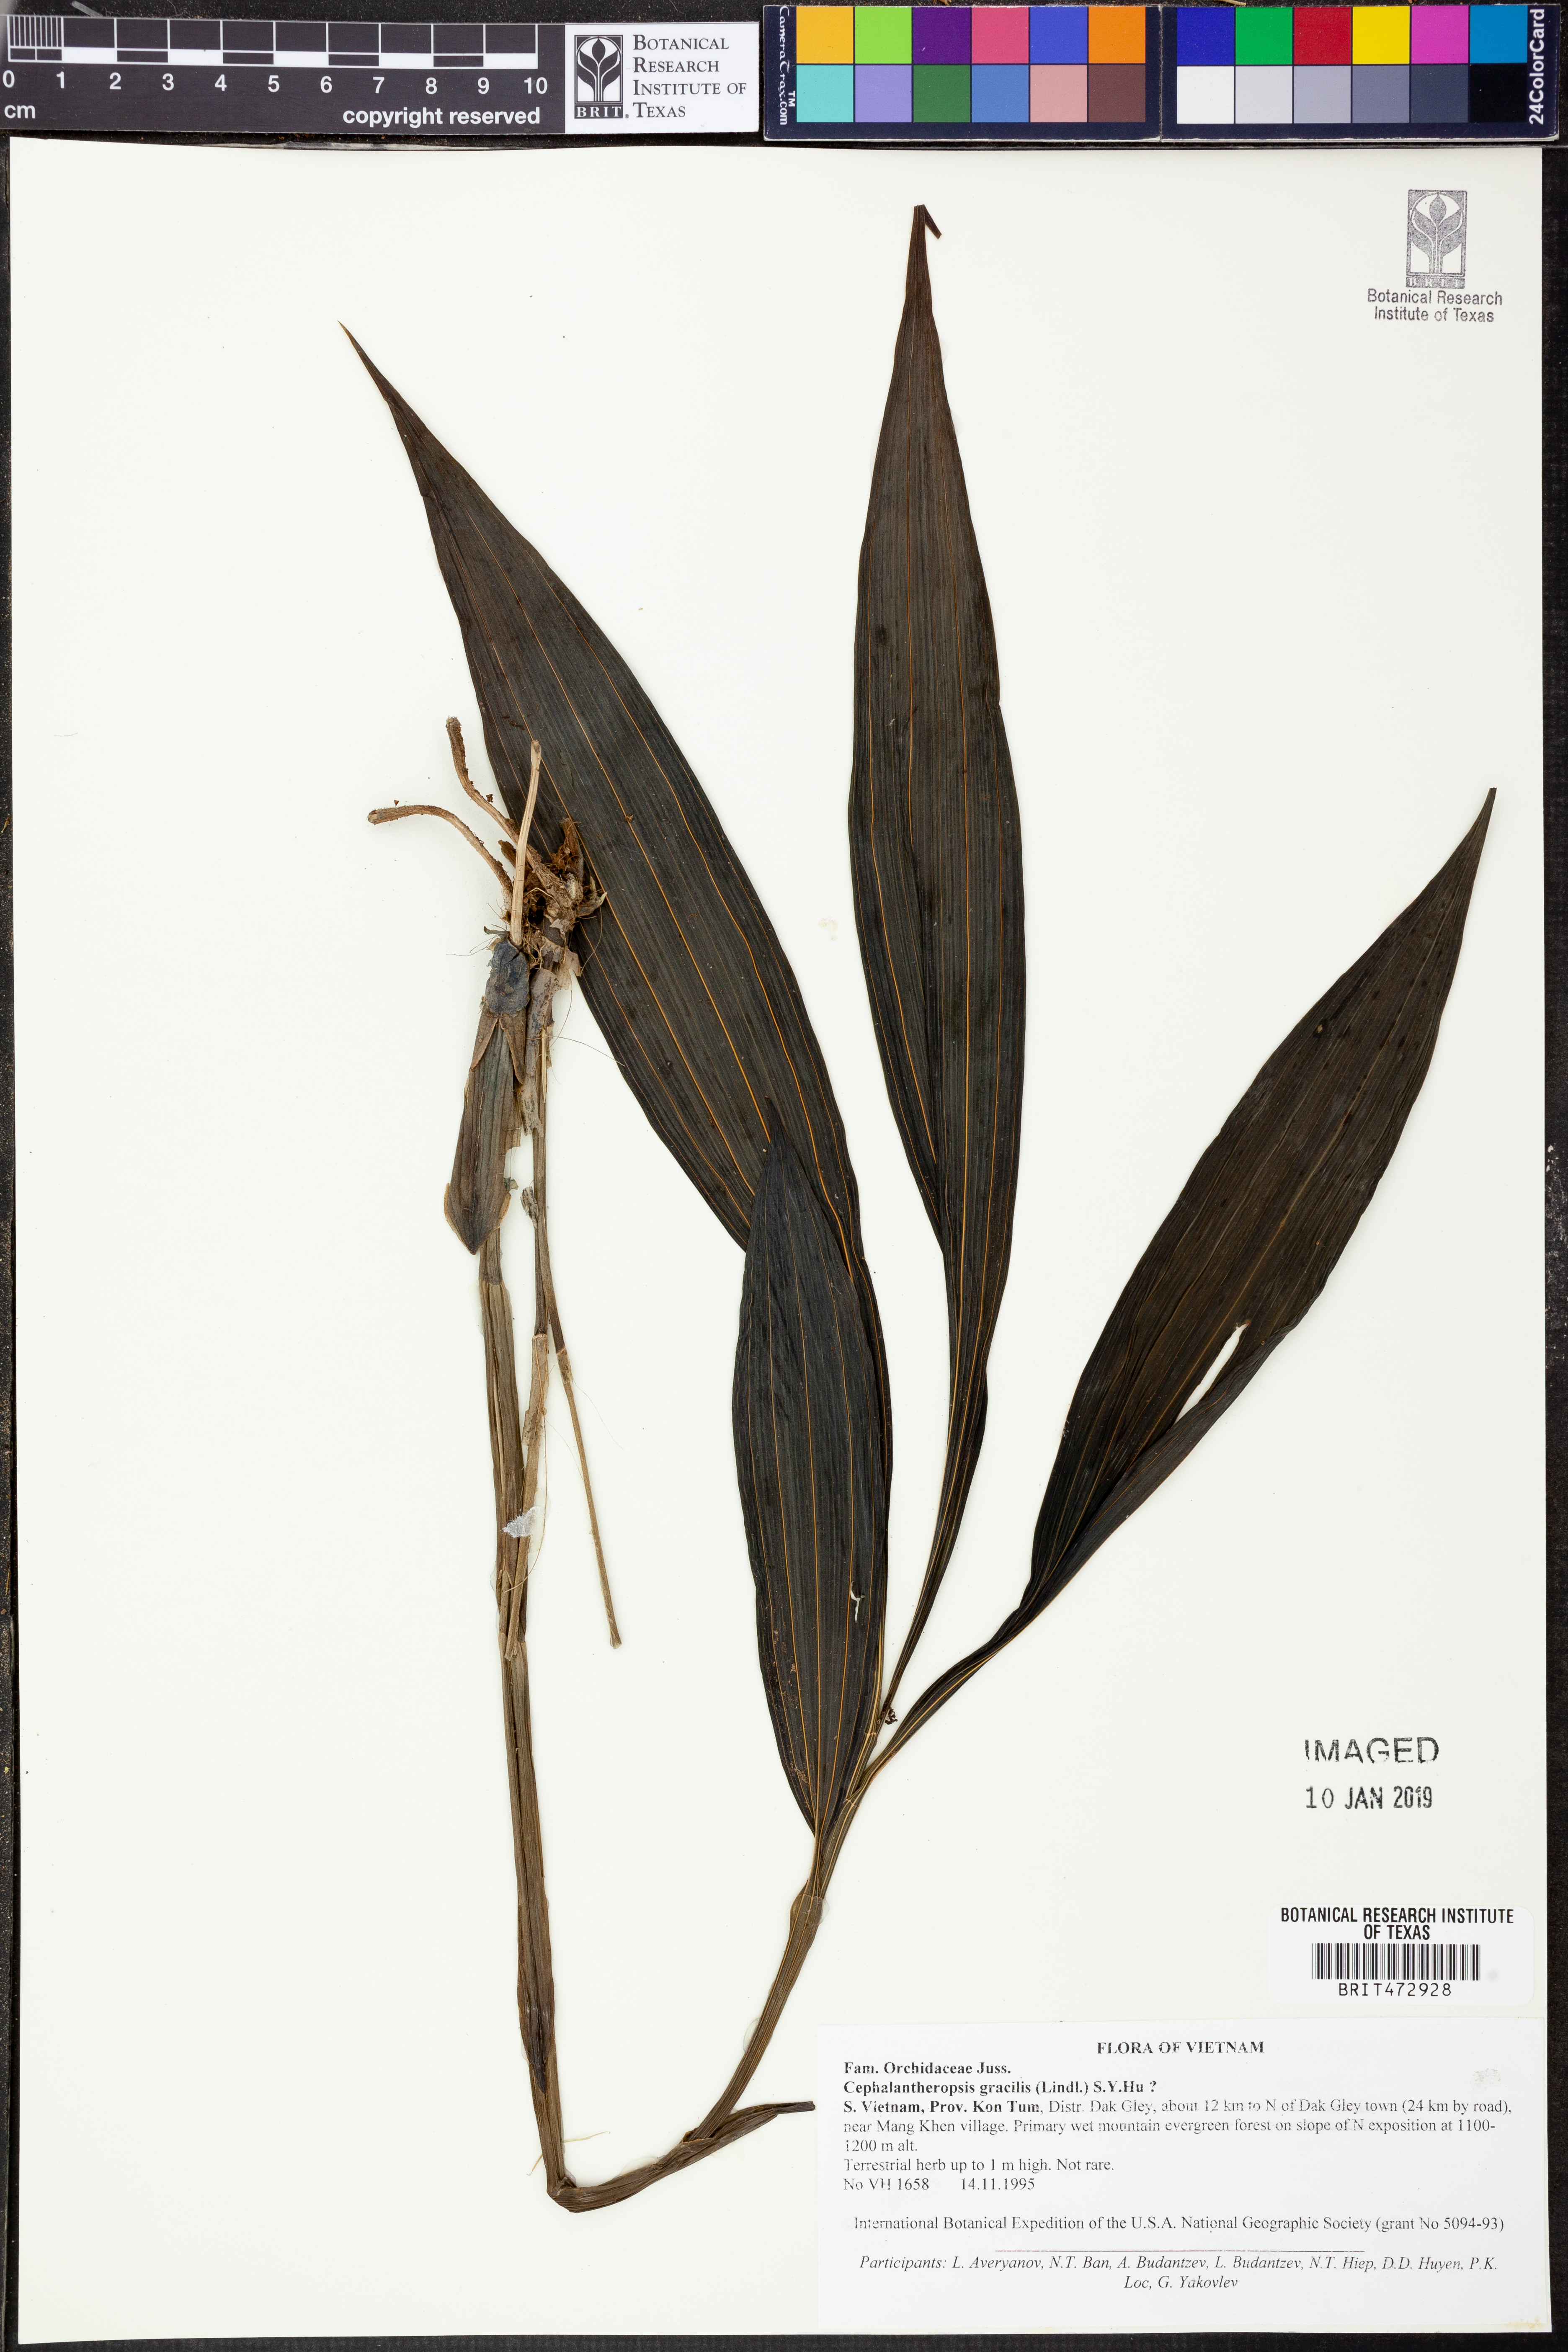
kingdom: Plantae
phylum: Tracheophyta
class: Liliopsida
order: Asparagales
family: Orchidaceae
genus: Calanthe
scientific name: Calanthe obcordata
